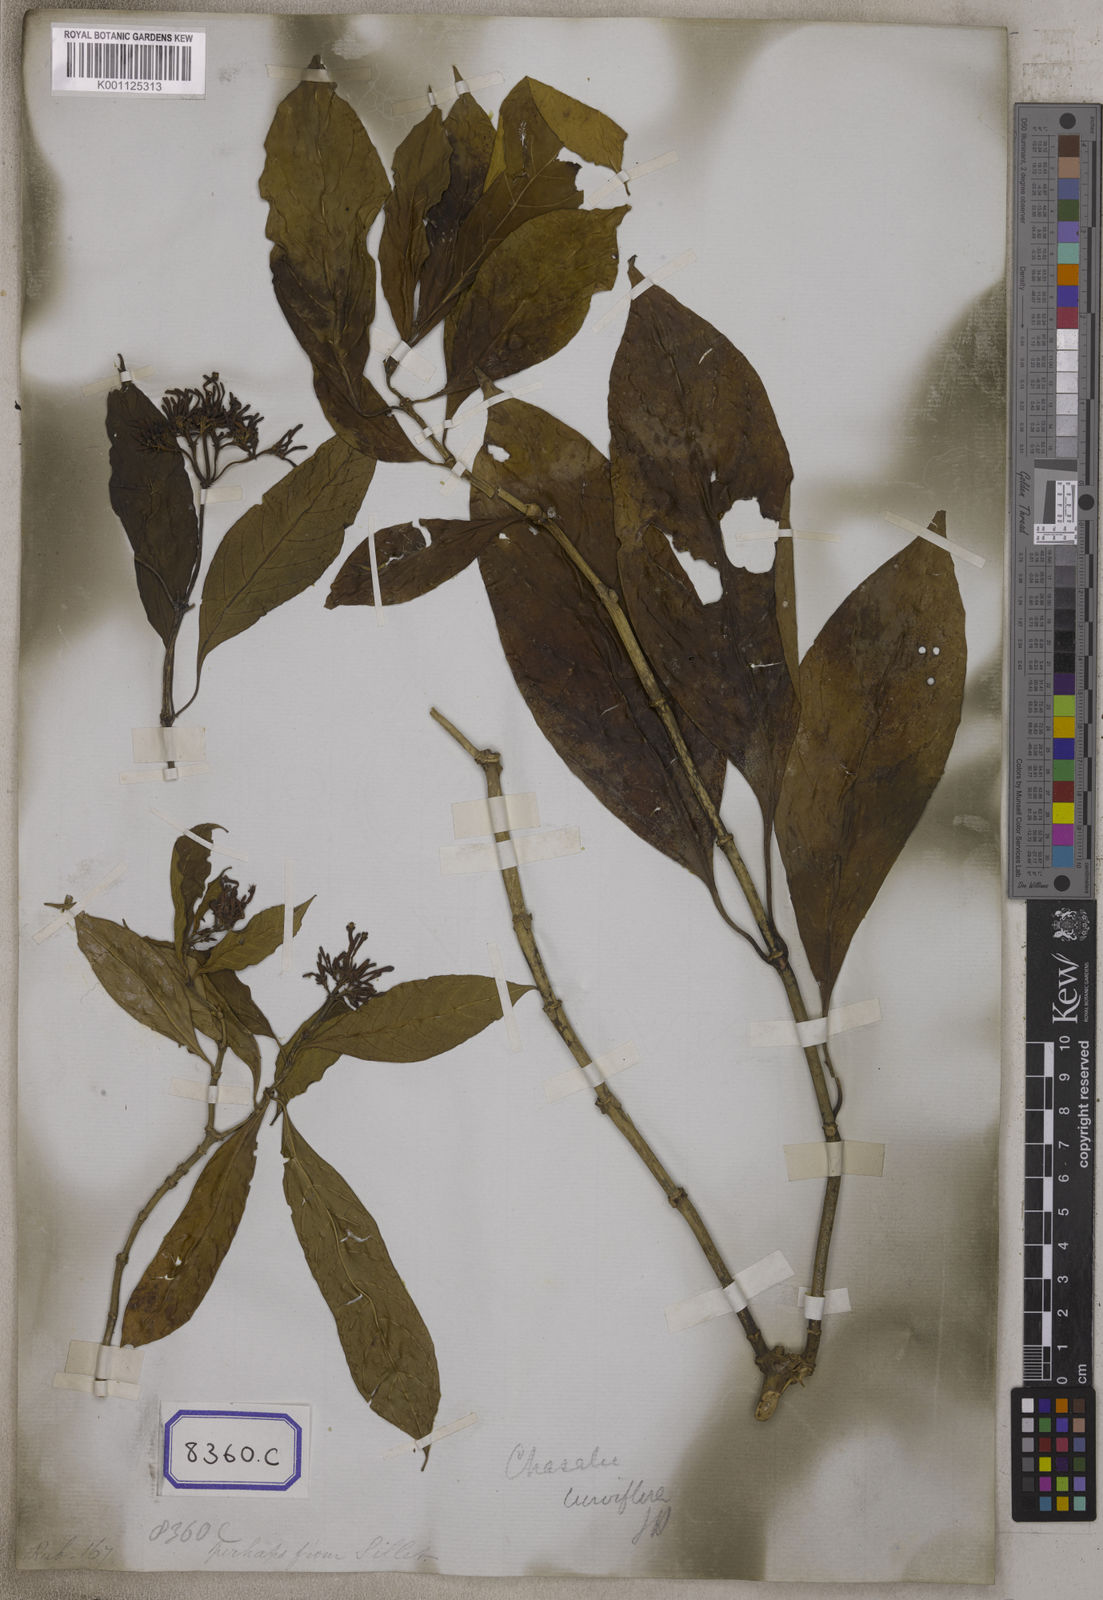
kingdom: Plantae
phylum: Tracheophyta
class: Magnoliopsida
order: Gentianales
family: Rubiaceae
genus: Chassalia
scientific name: Chassalia curviflora
